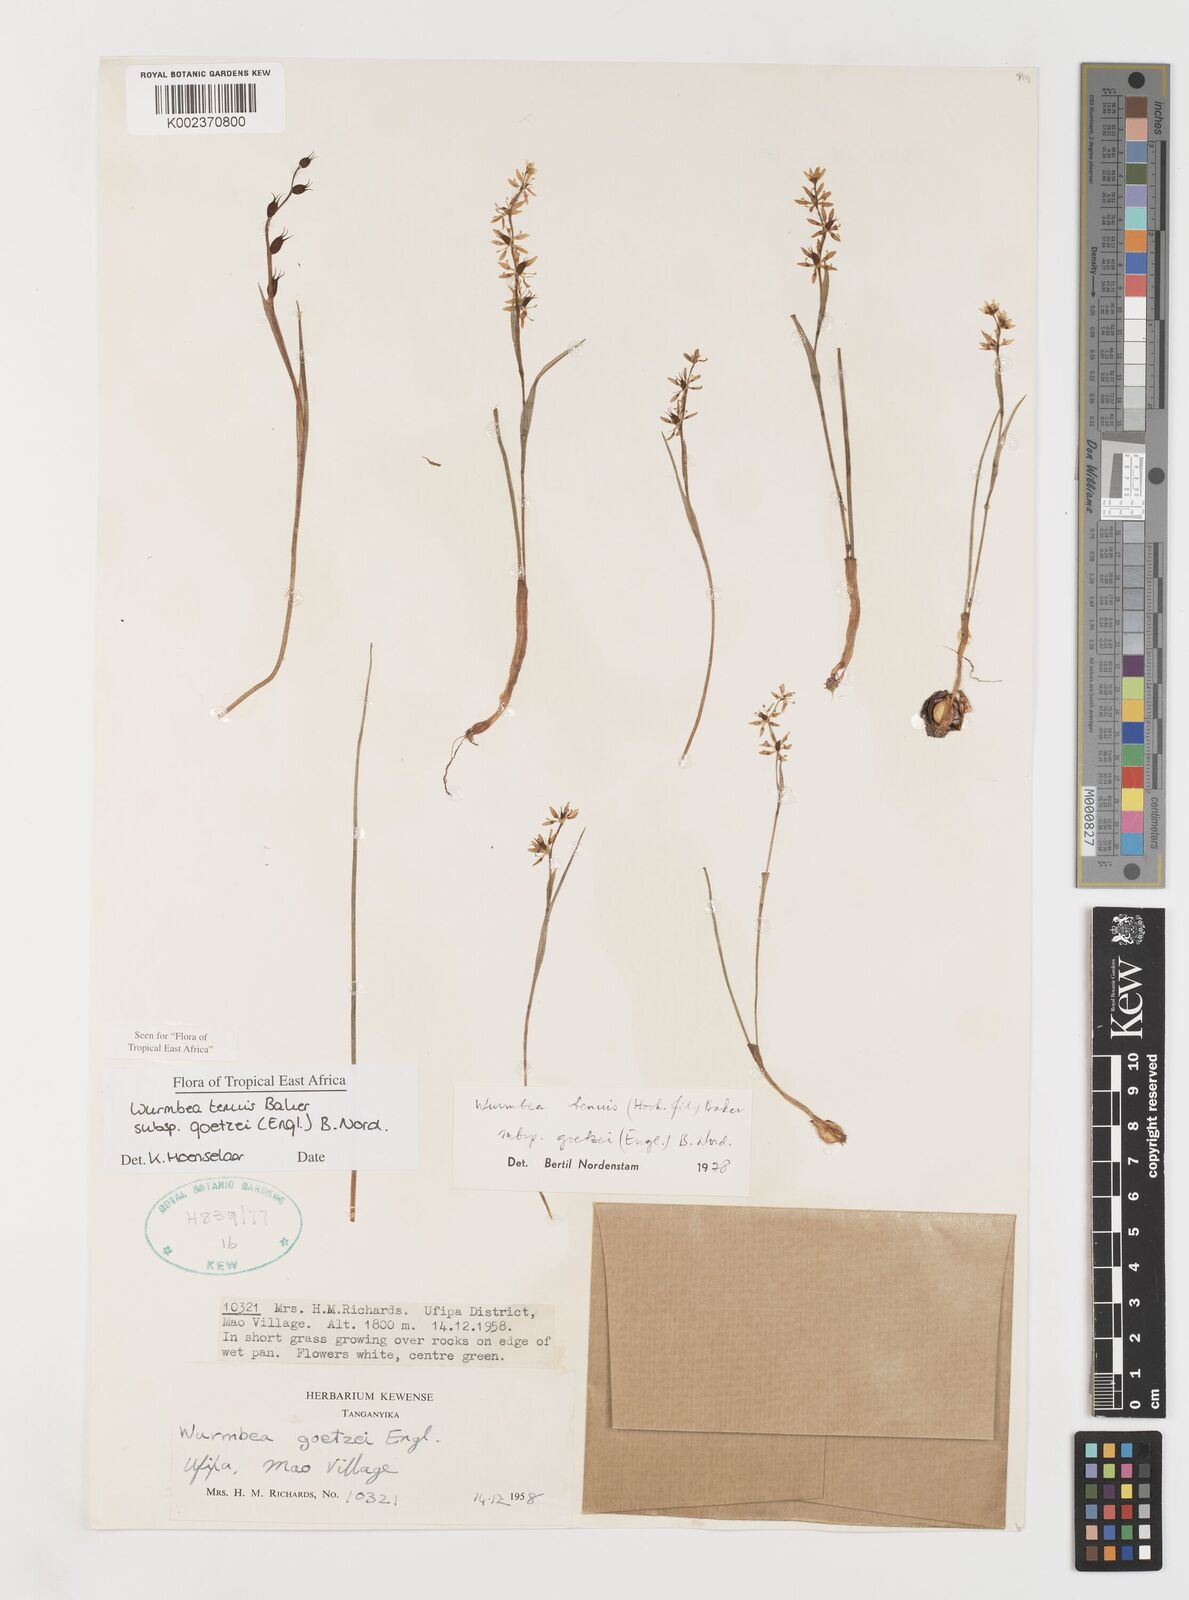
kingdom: Plantae
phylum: Tracheophyta
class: Liliopsida
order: Liliales
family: Colchicaceae
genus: Wurmbea
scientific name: Wurmbea tenuis
